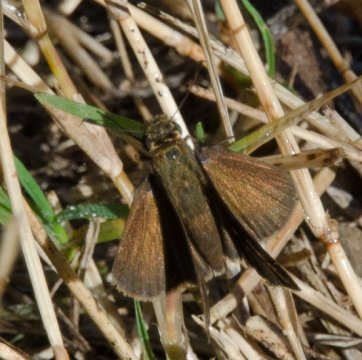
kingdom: Animalia
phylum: Arthropoda
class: Insecta
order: Lepidoptera
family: Hesperiidae
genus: Euphyes
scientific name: Euphyes vestris
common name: Dun Skipper
